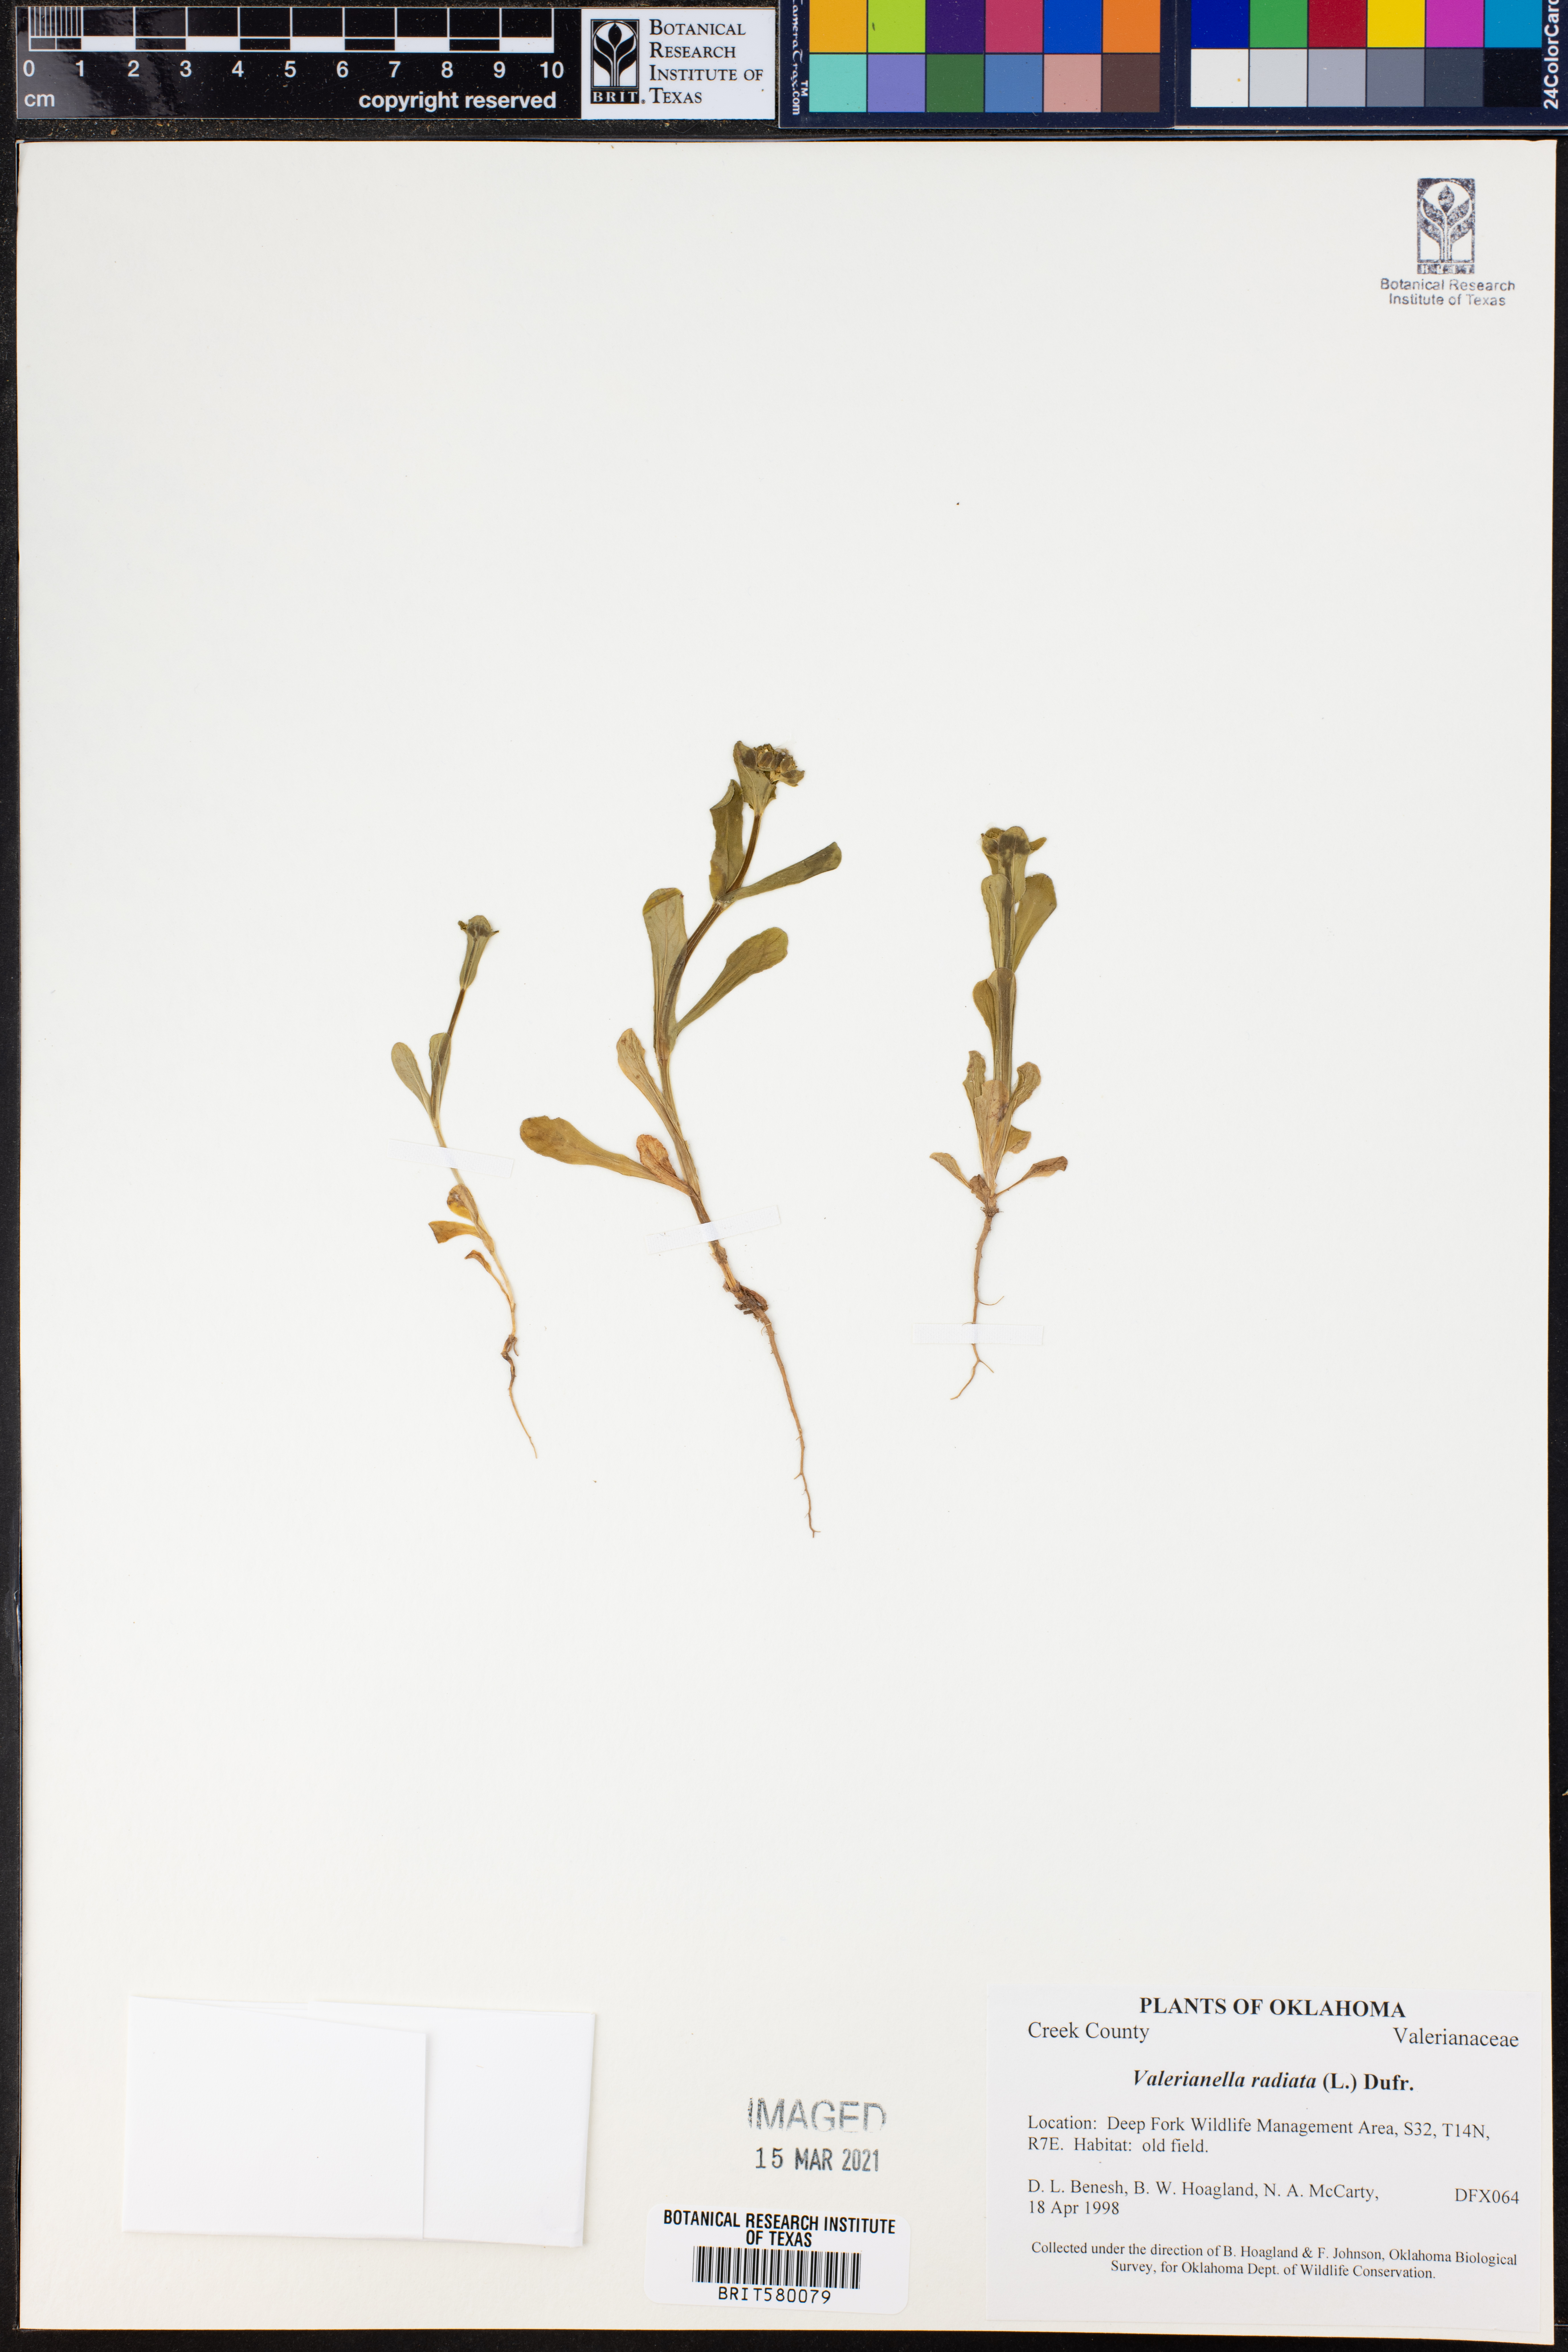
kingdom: Plantae
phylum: Tracheophyta
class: Magnoliopsida
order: Dipsacales
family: Caprifoliaceae
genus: Valerianella
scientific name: Valerianella radiata
